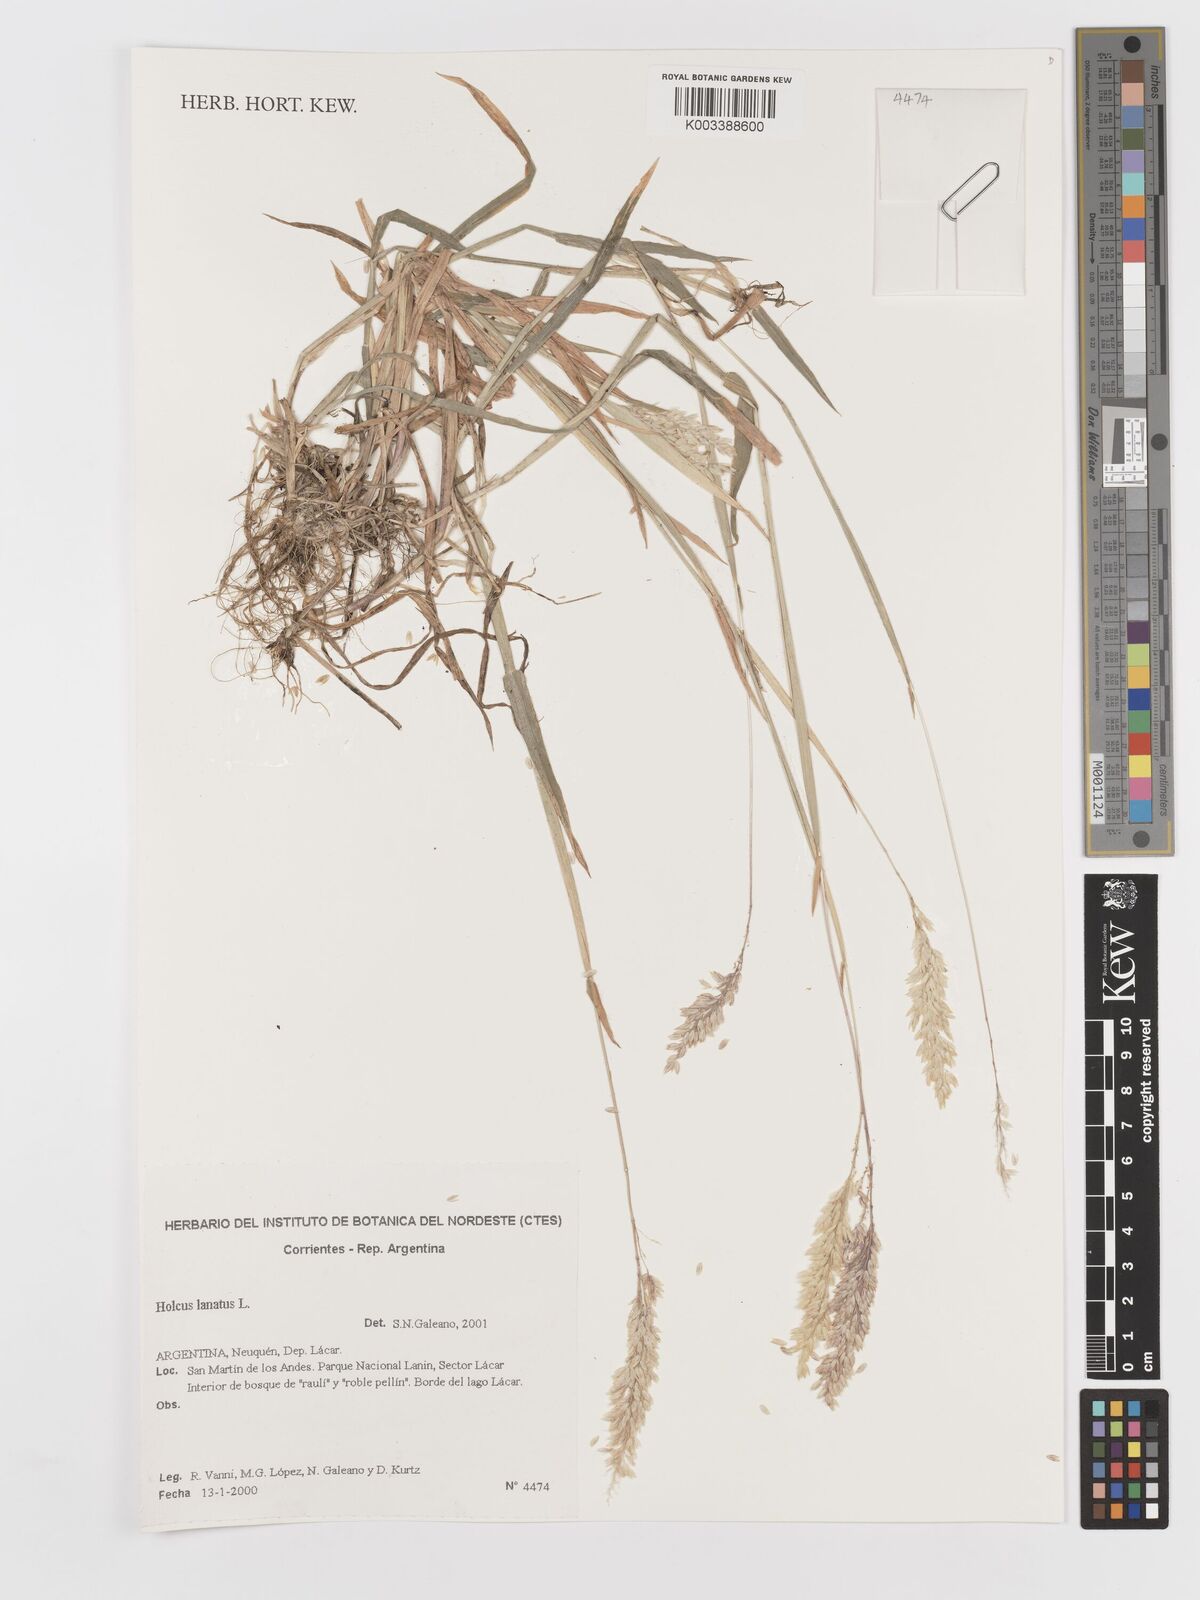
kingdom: Plantae
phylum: Tracheophyta
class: Liliopsida
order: Poales
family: Poaceae
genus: Holcus
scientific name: Holcus lanatus
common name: Yorkshire-fog
